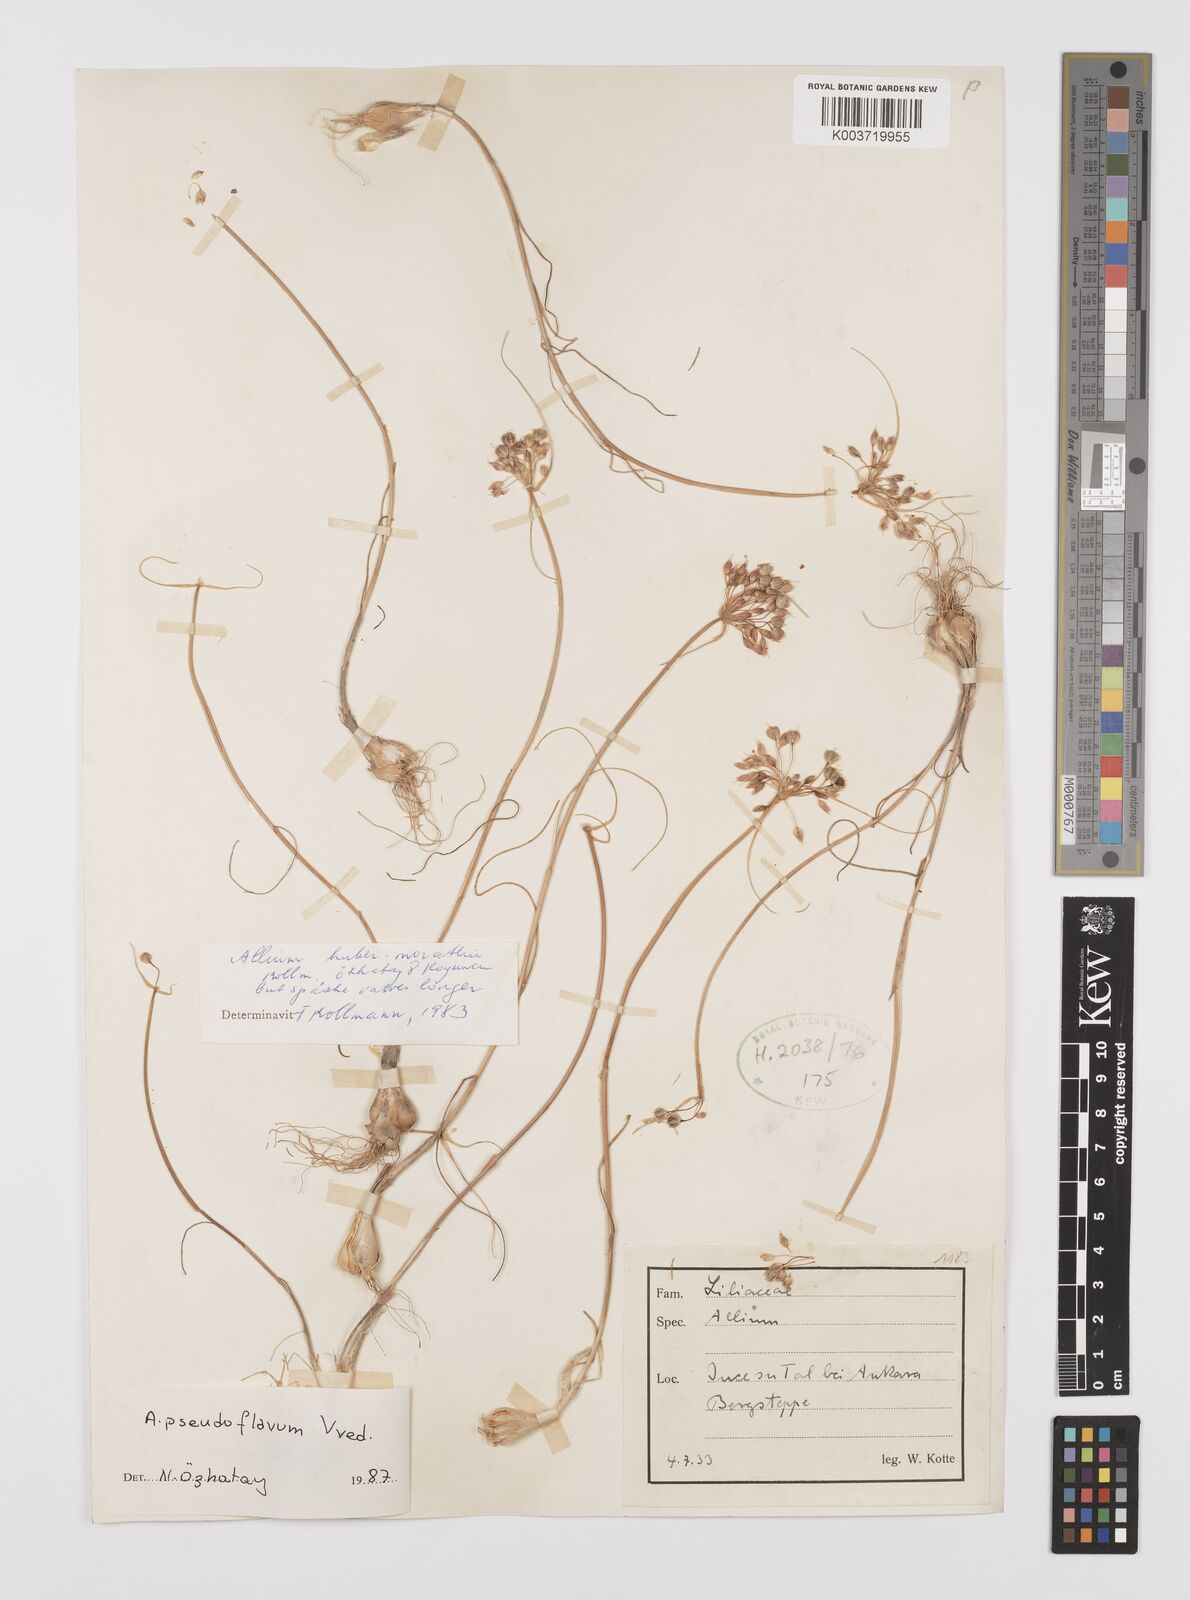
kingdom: Plantae
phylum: Tracheophyta
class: Liliopsida
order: Asparagales
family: Amaryllidaceae
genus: Allium
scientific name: Allium pseudoflavum
